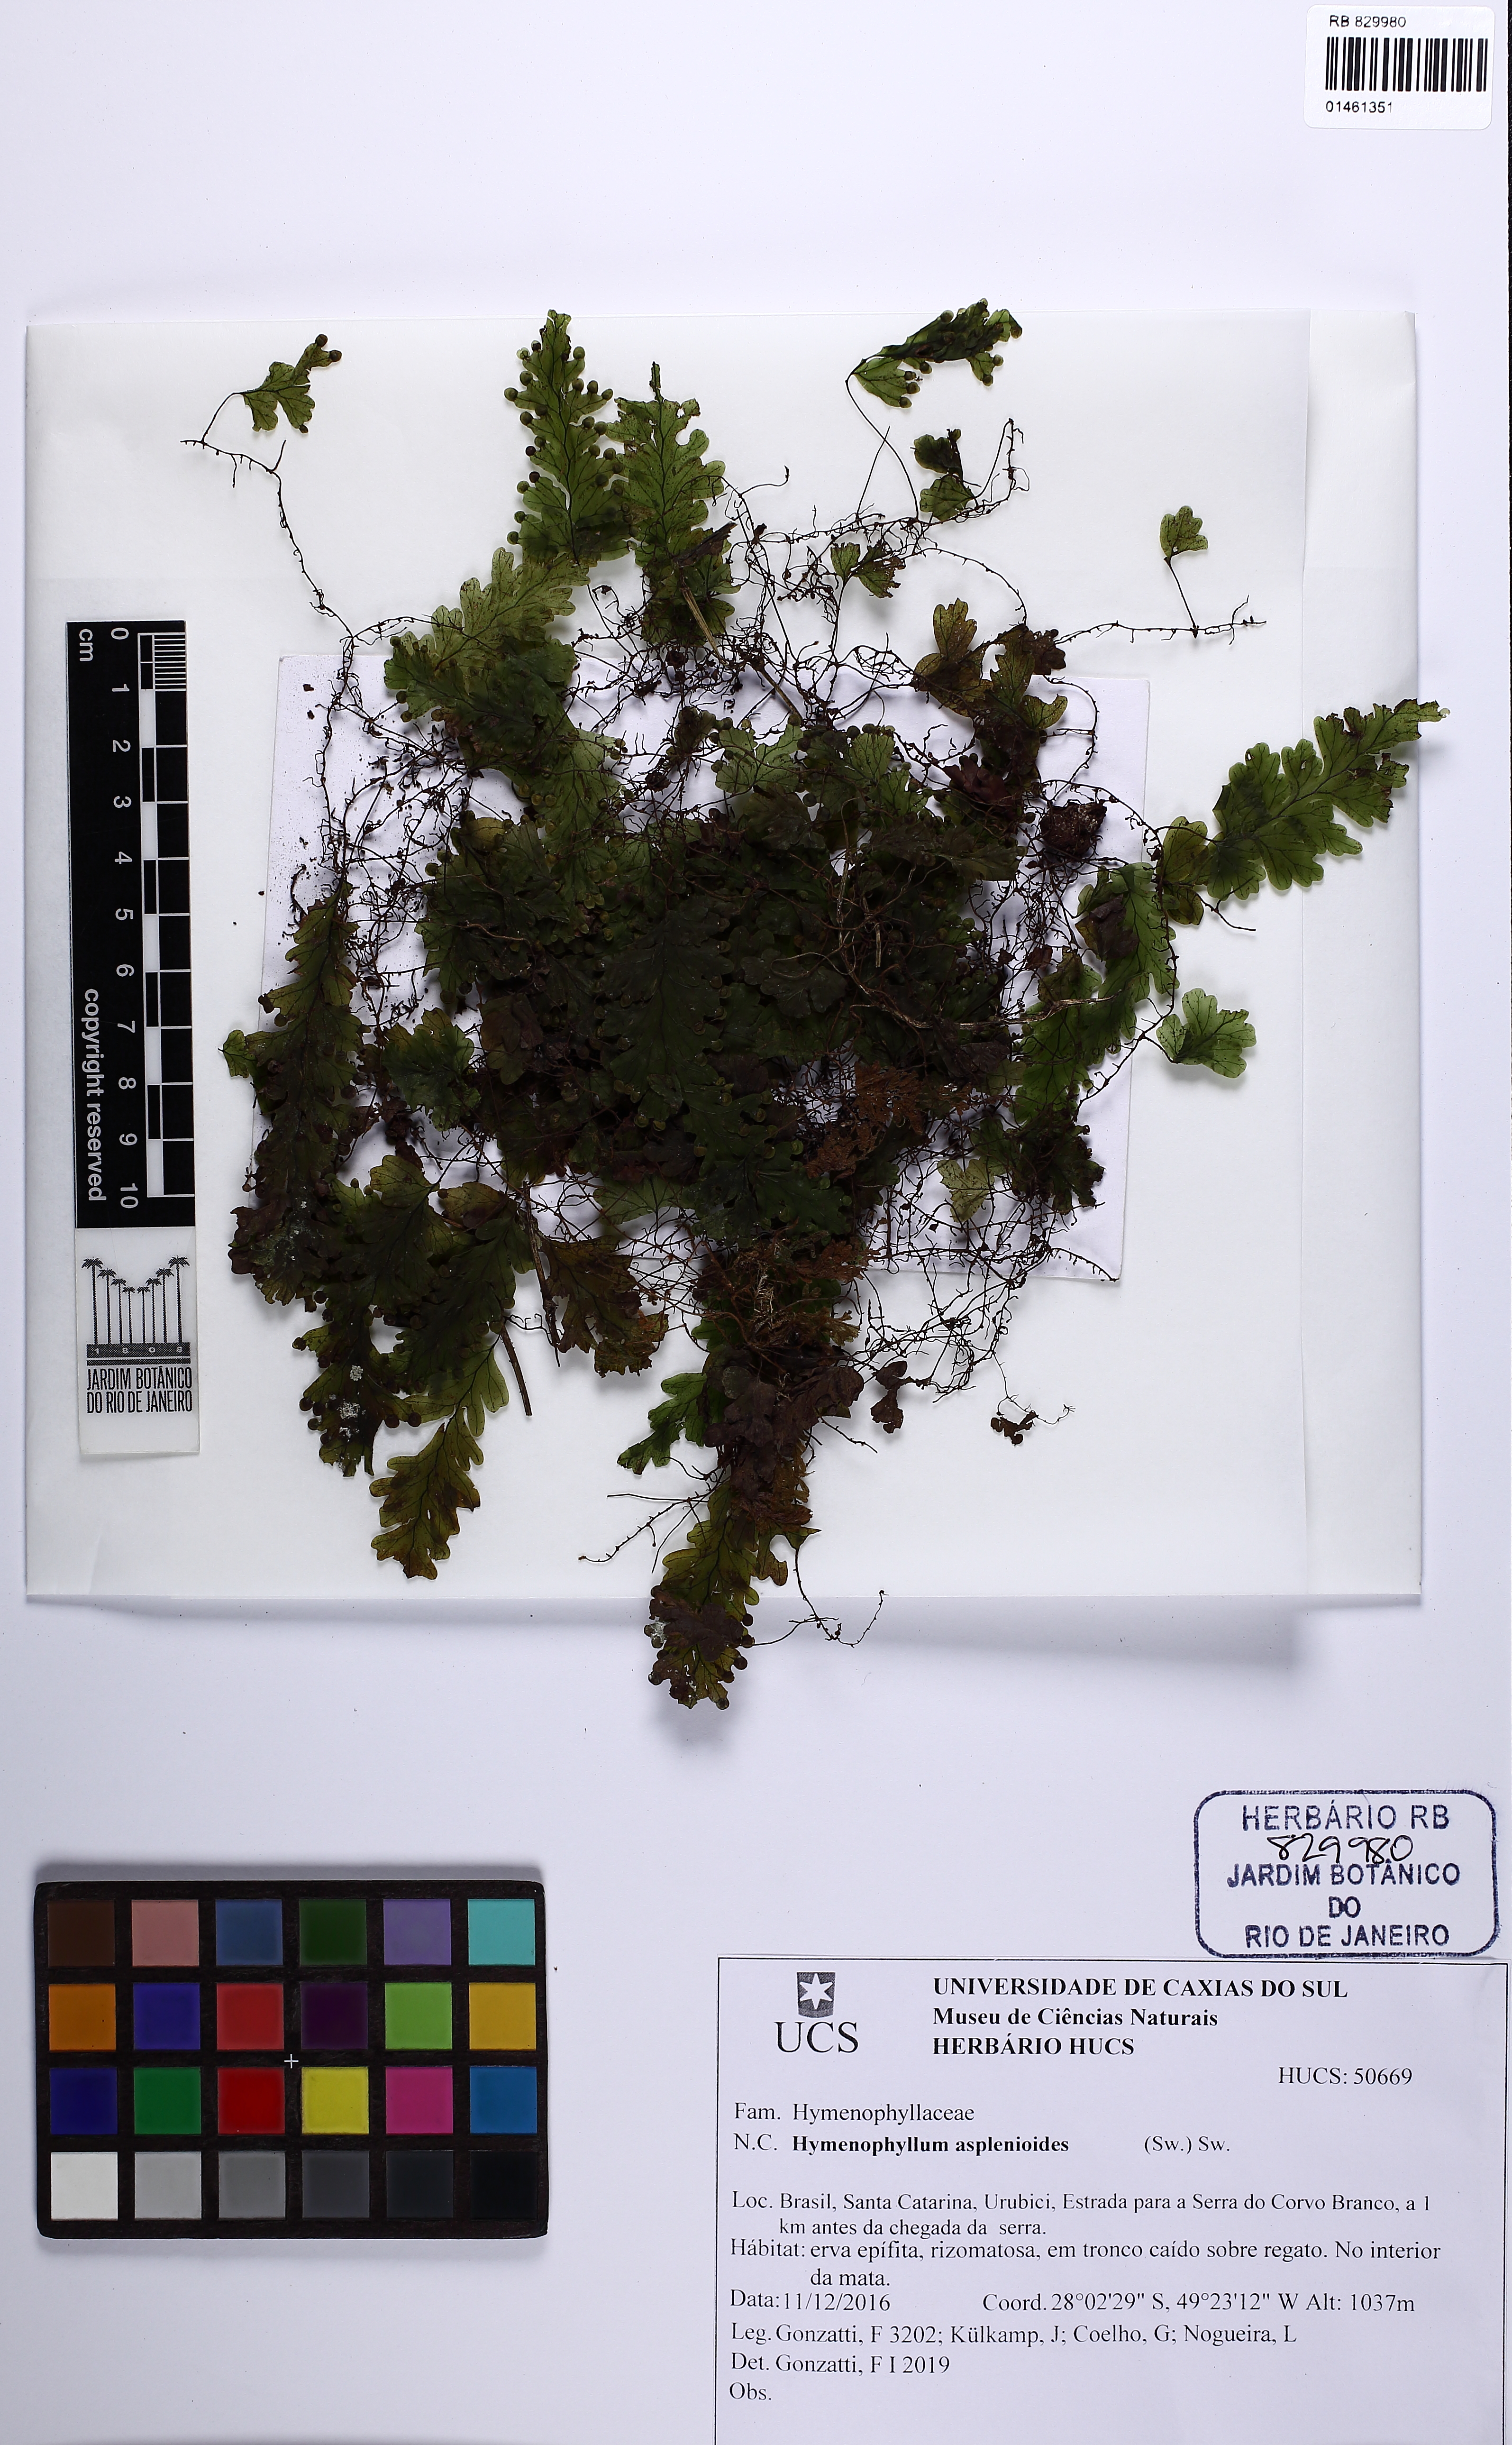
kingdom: Plantae
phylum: Tracheophyta
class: Polypodiopsida
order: Hymenophyllales
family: Hymenophyllaceae
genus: Hymenophyllum
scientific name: Hymenophyllum asplenioides
